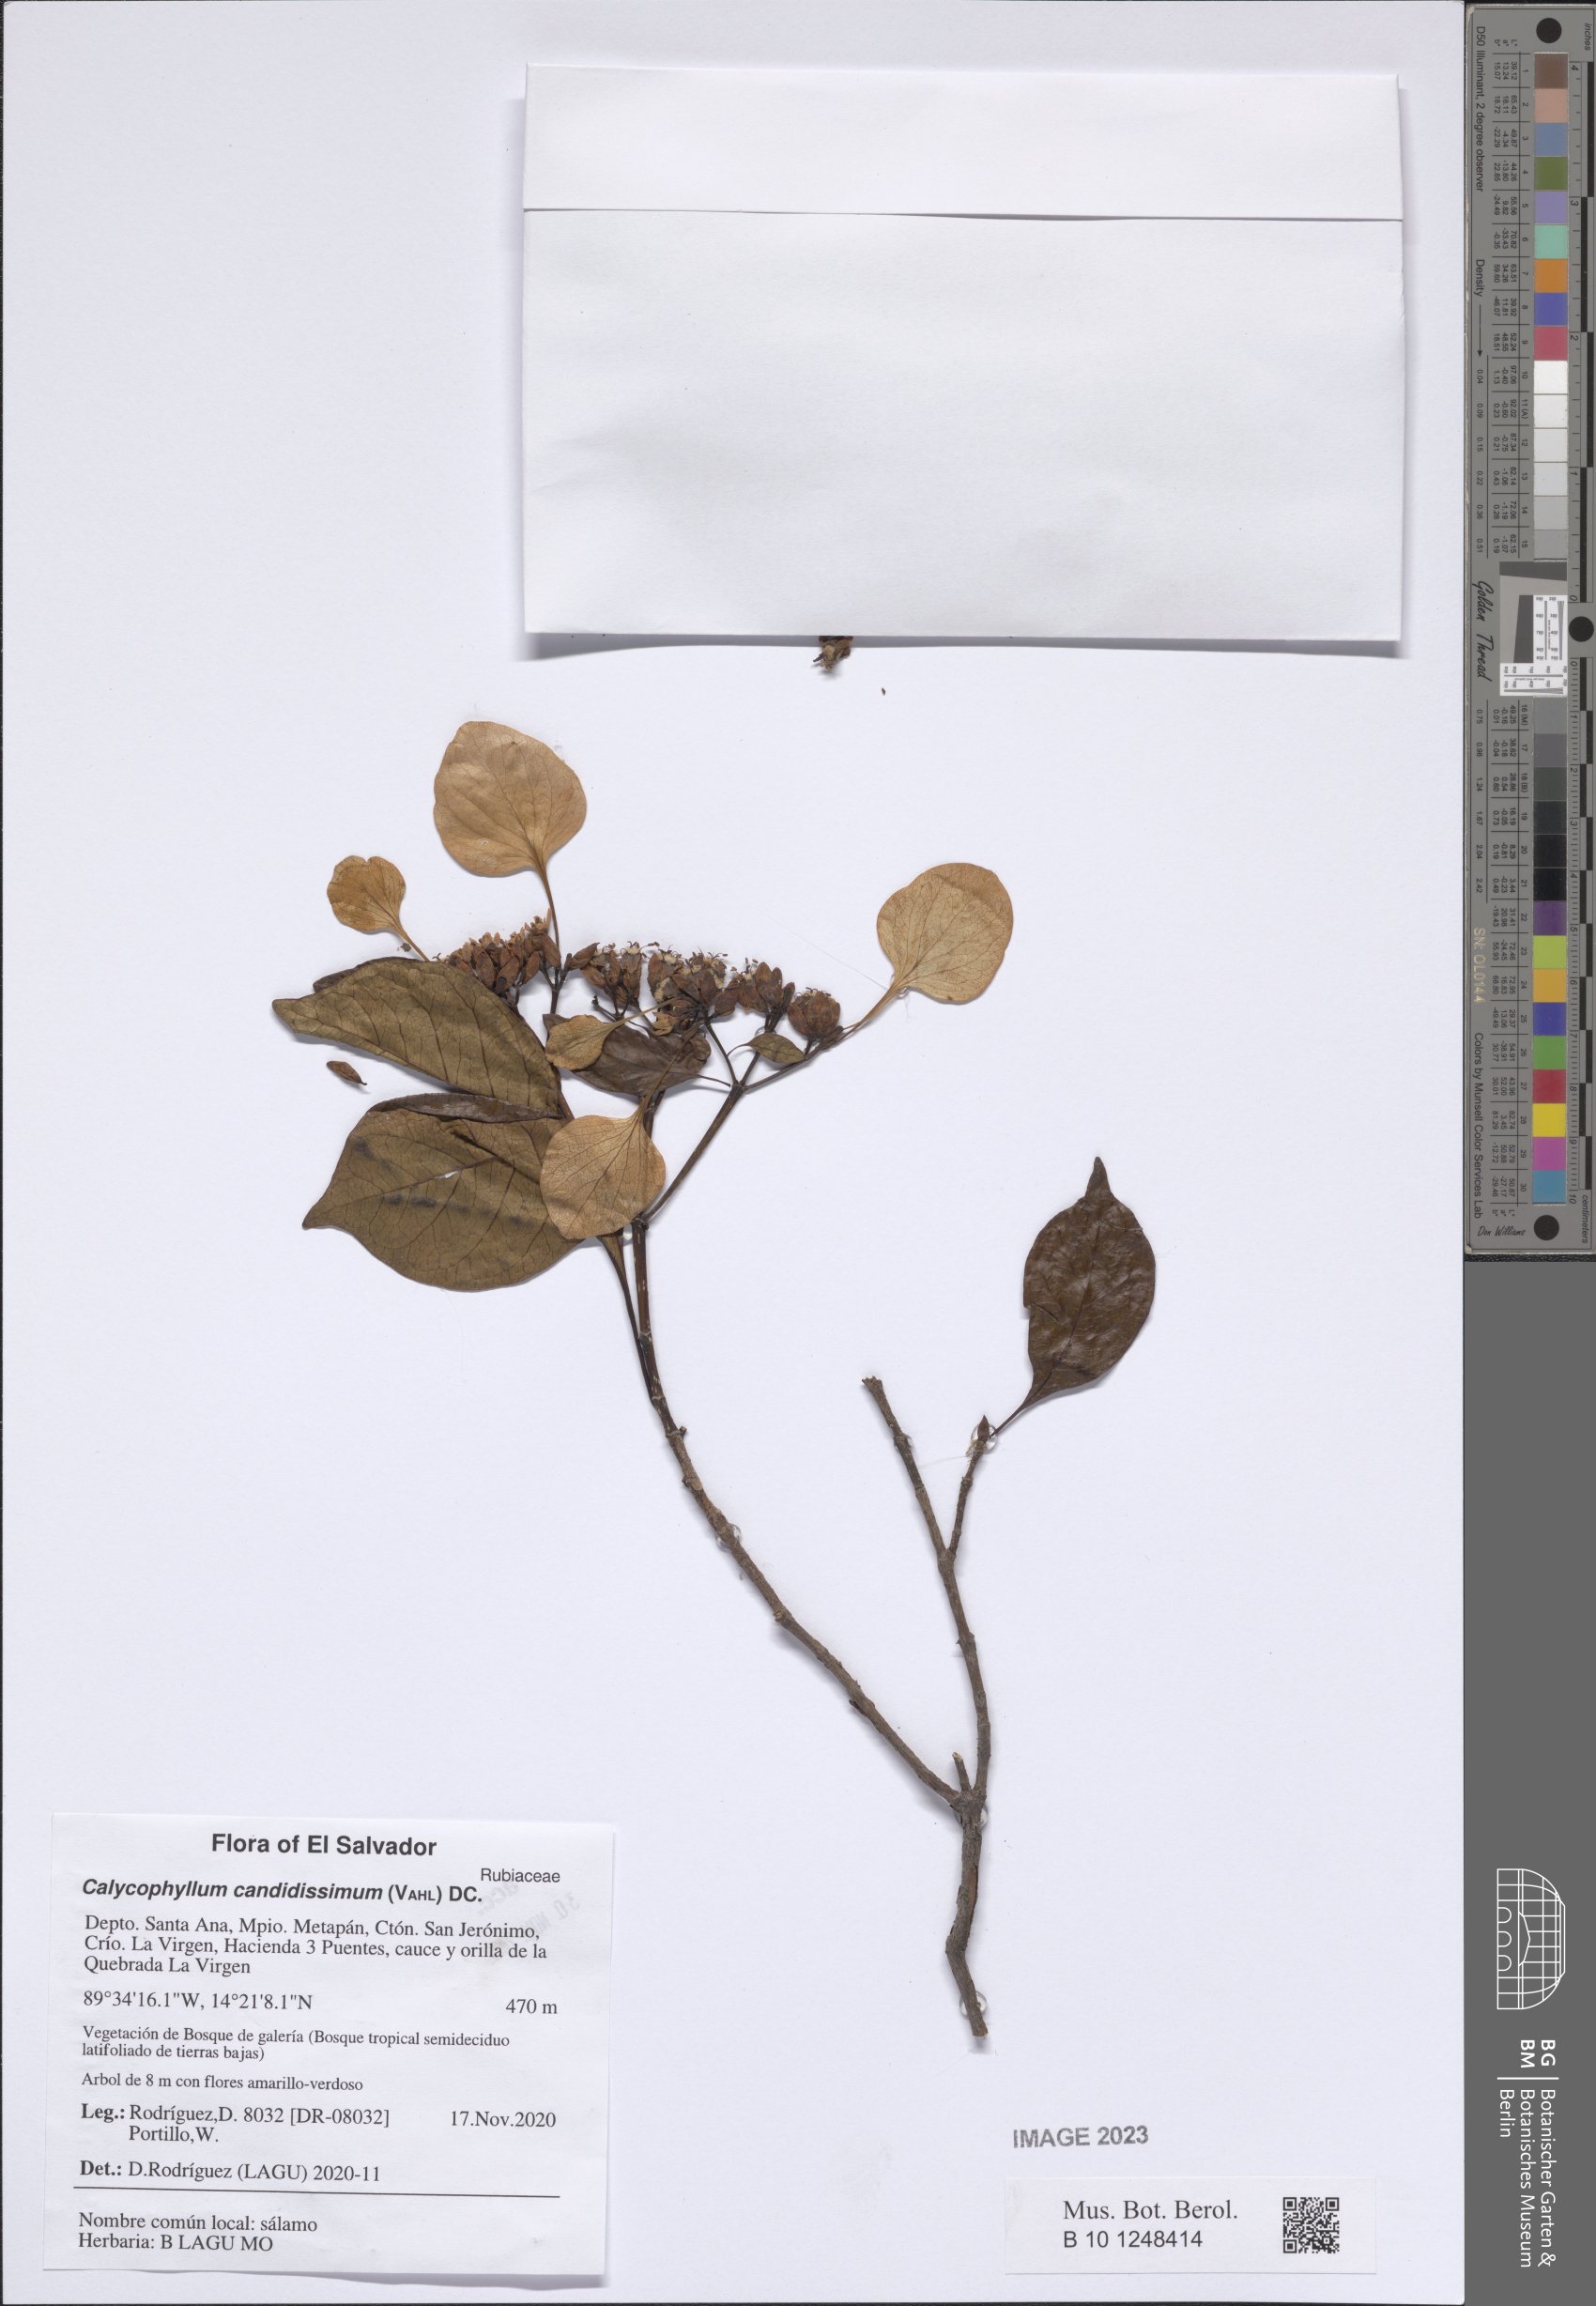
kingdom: Plantae
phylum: Tracheophyta
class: Magnoliopsida
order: Gentianales
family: Rubiaceae
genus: Calycophyllum
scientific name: Calycophyllum candidissimum
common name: Dagame
